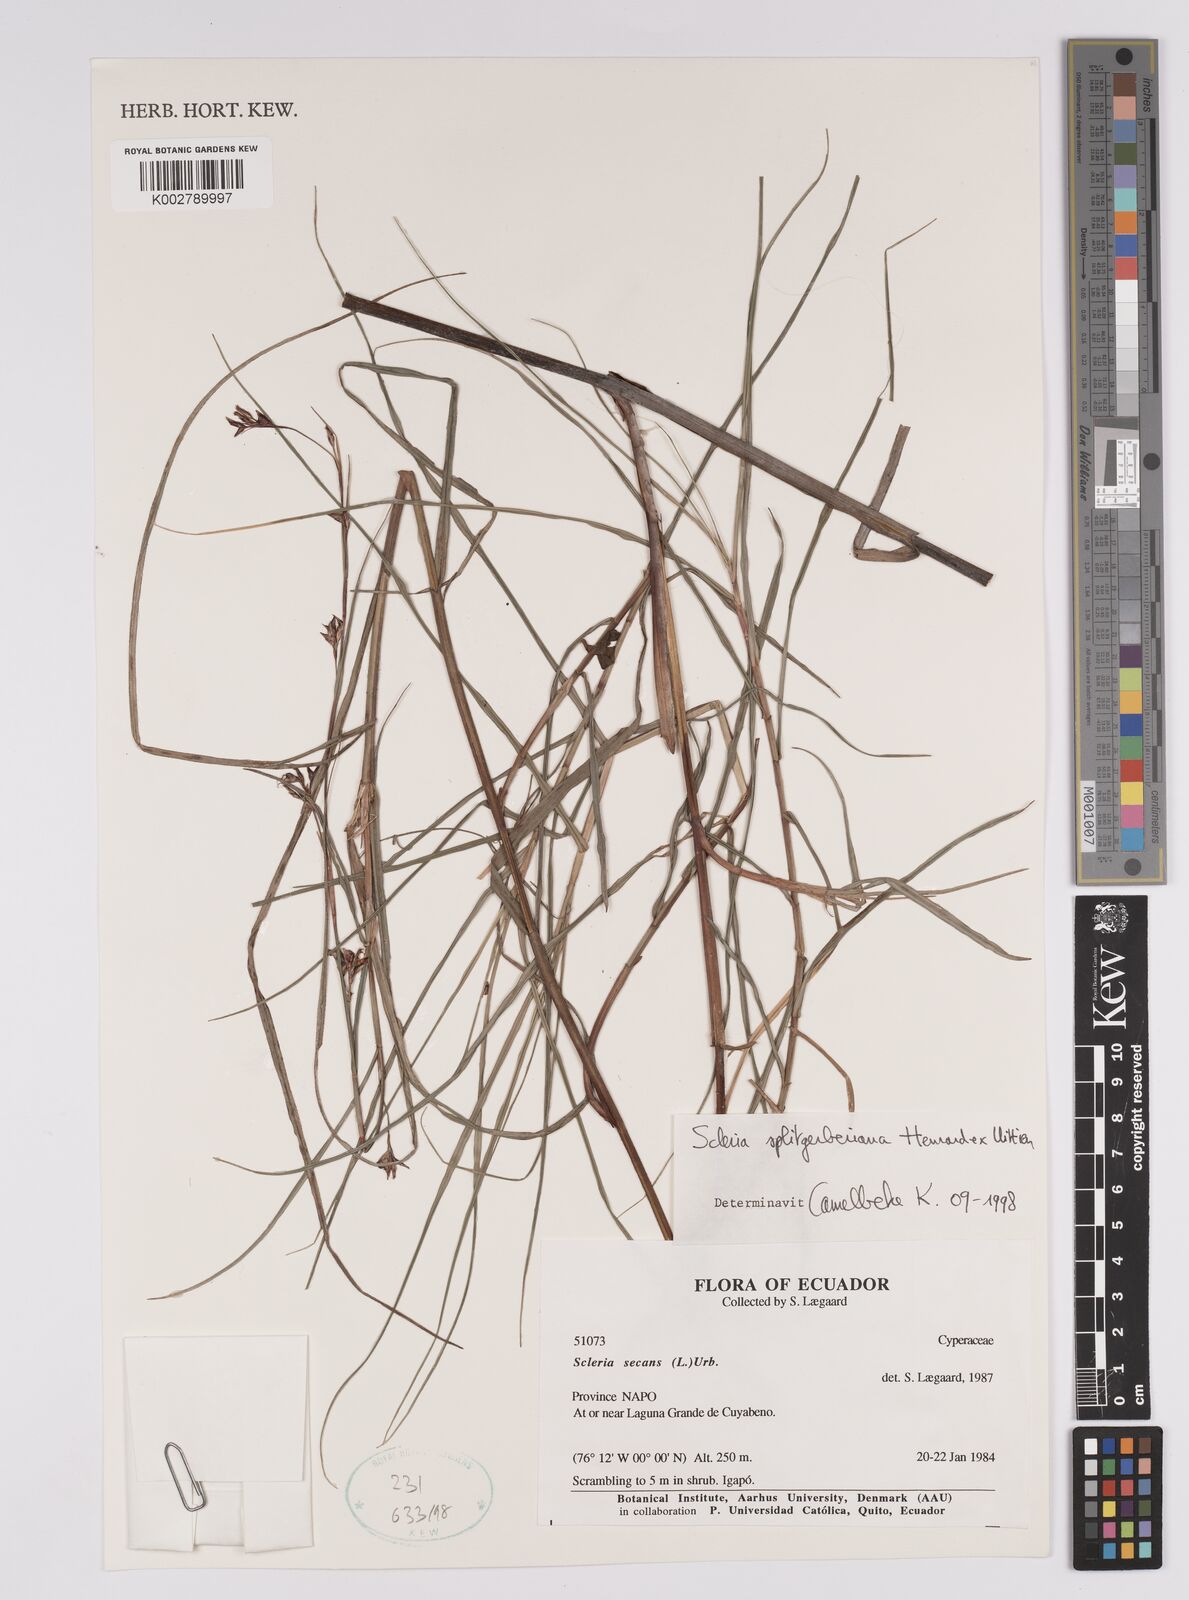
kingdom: Plantae
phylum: Tracheophyta
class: Liliopsida
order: Poales
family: Cyperaceae
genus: Scleria
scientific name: Scleria secans
